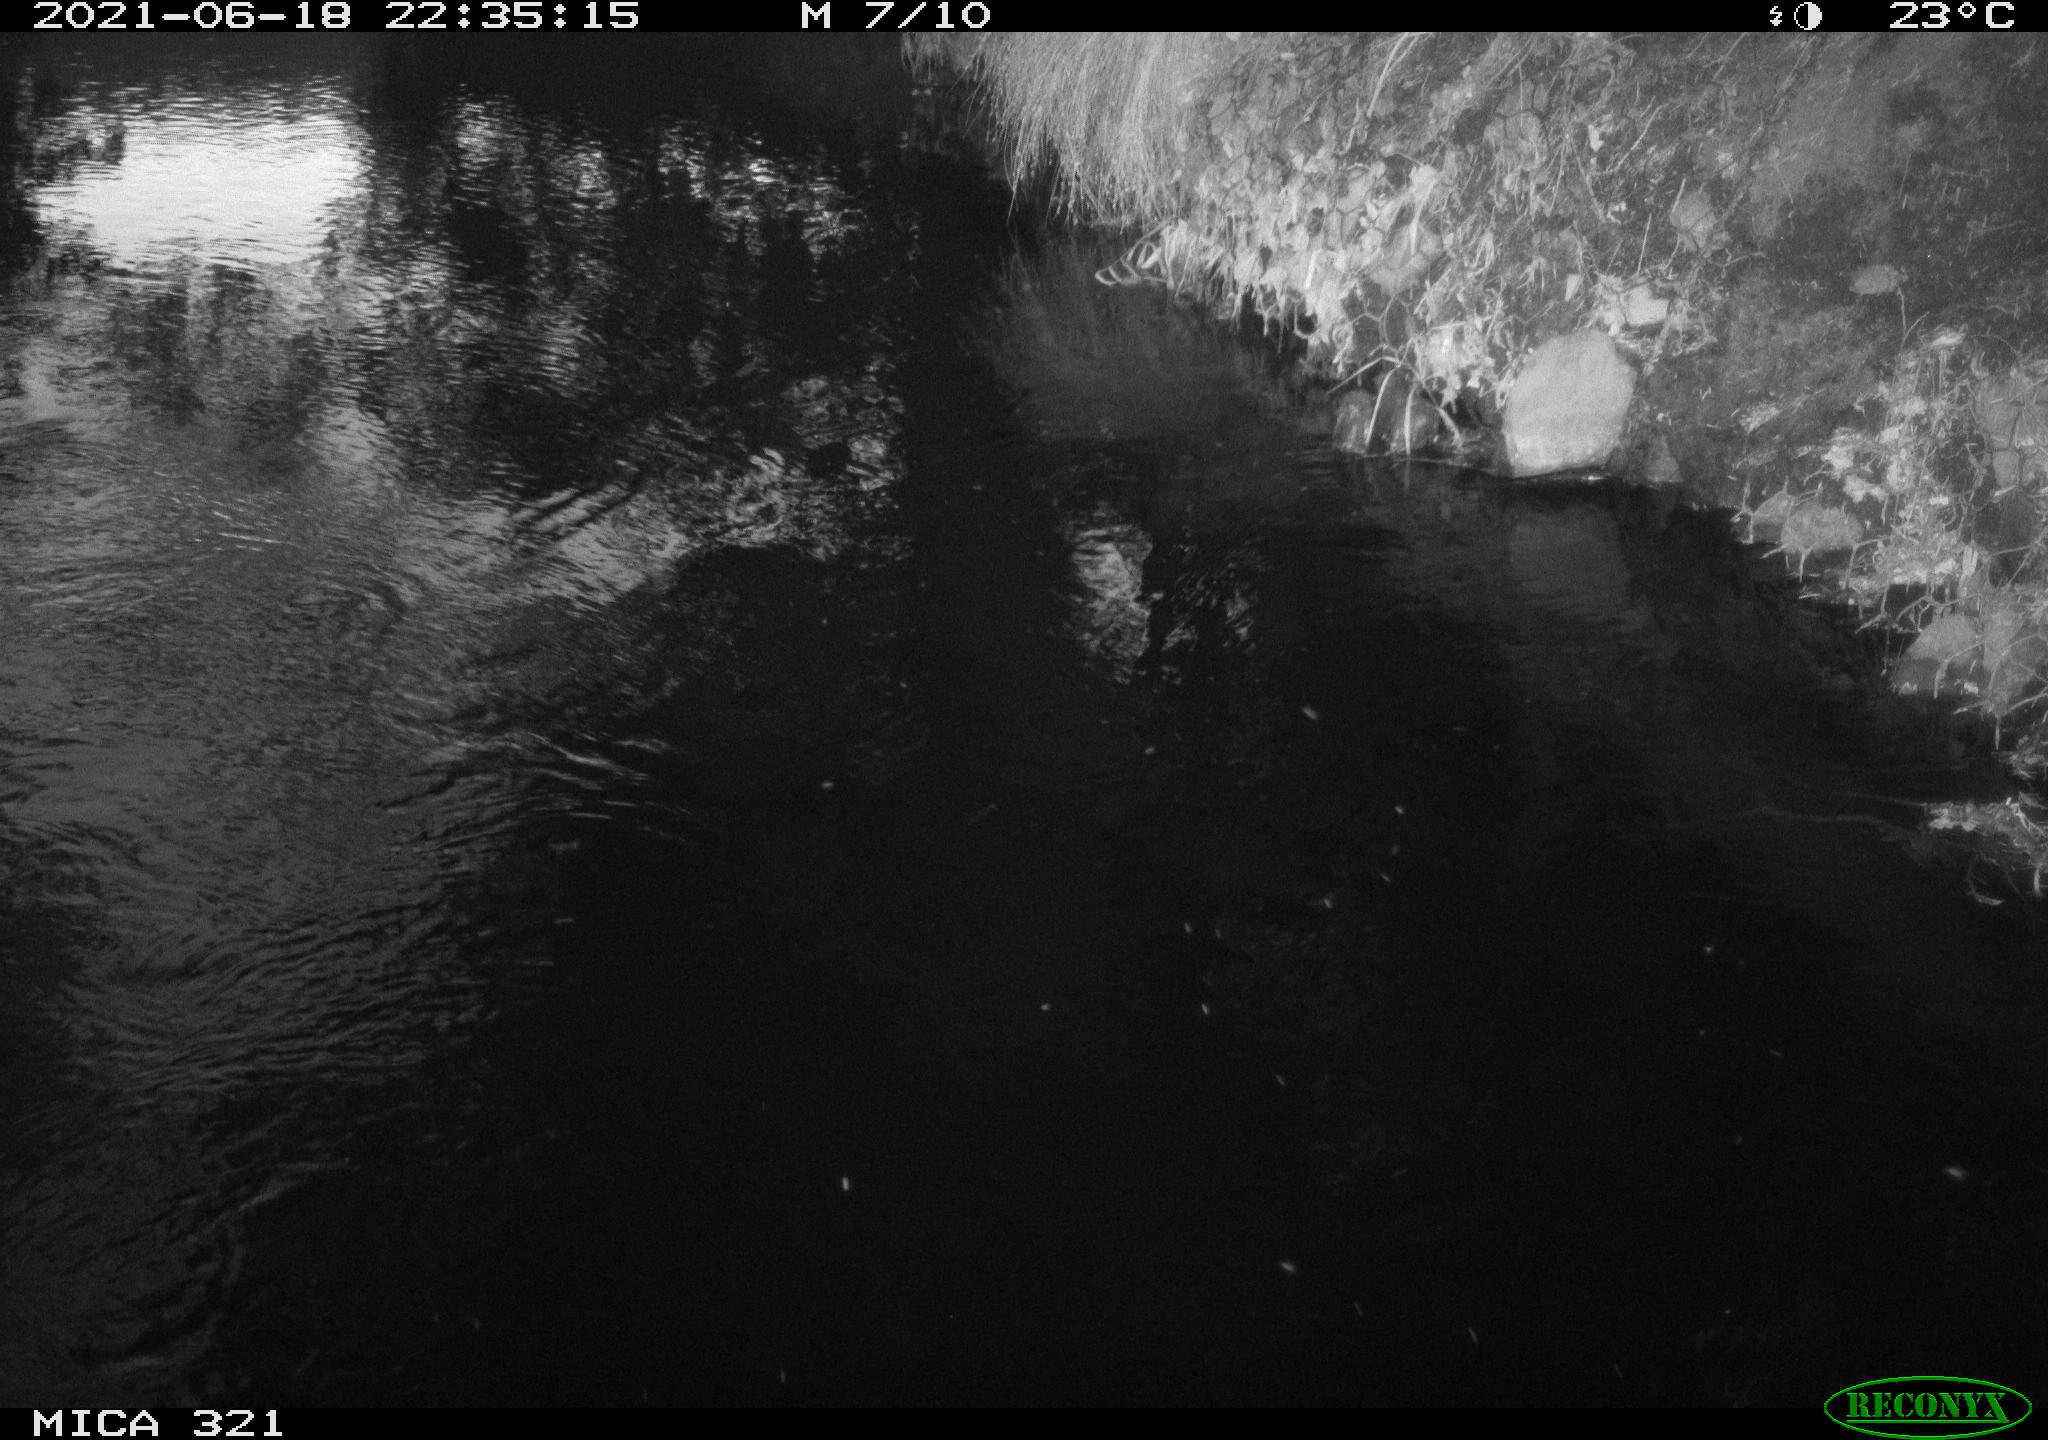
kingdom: Animalia
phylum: Chordata
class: Aves
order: Anseriformes
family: Anatidae
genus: Anas
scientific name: Anas platyrhynchos
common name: Mallard
